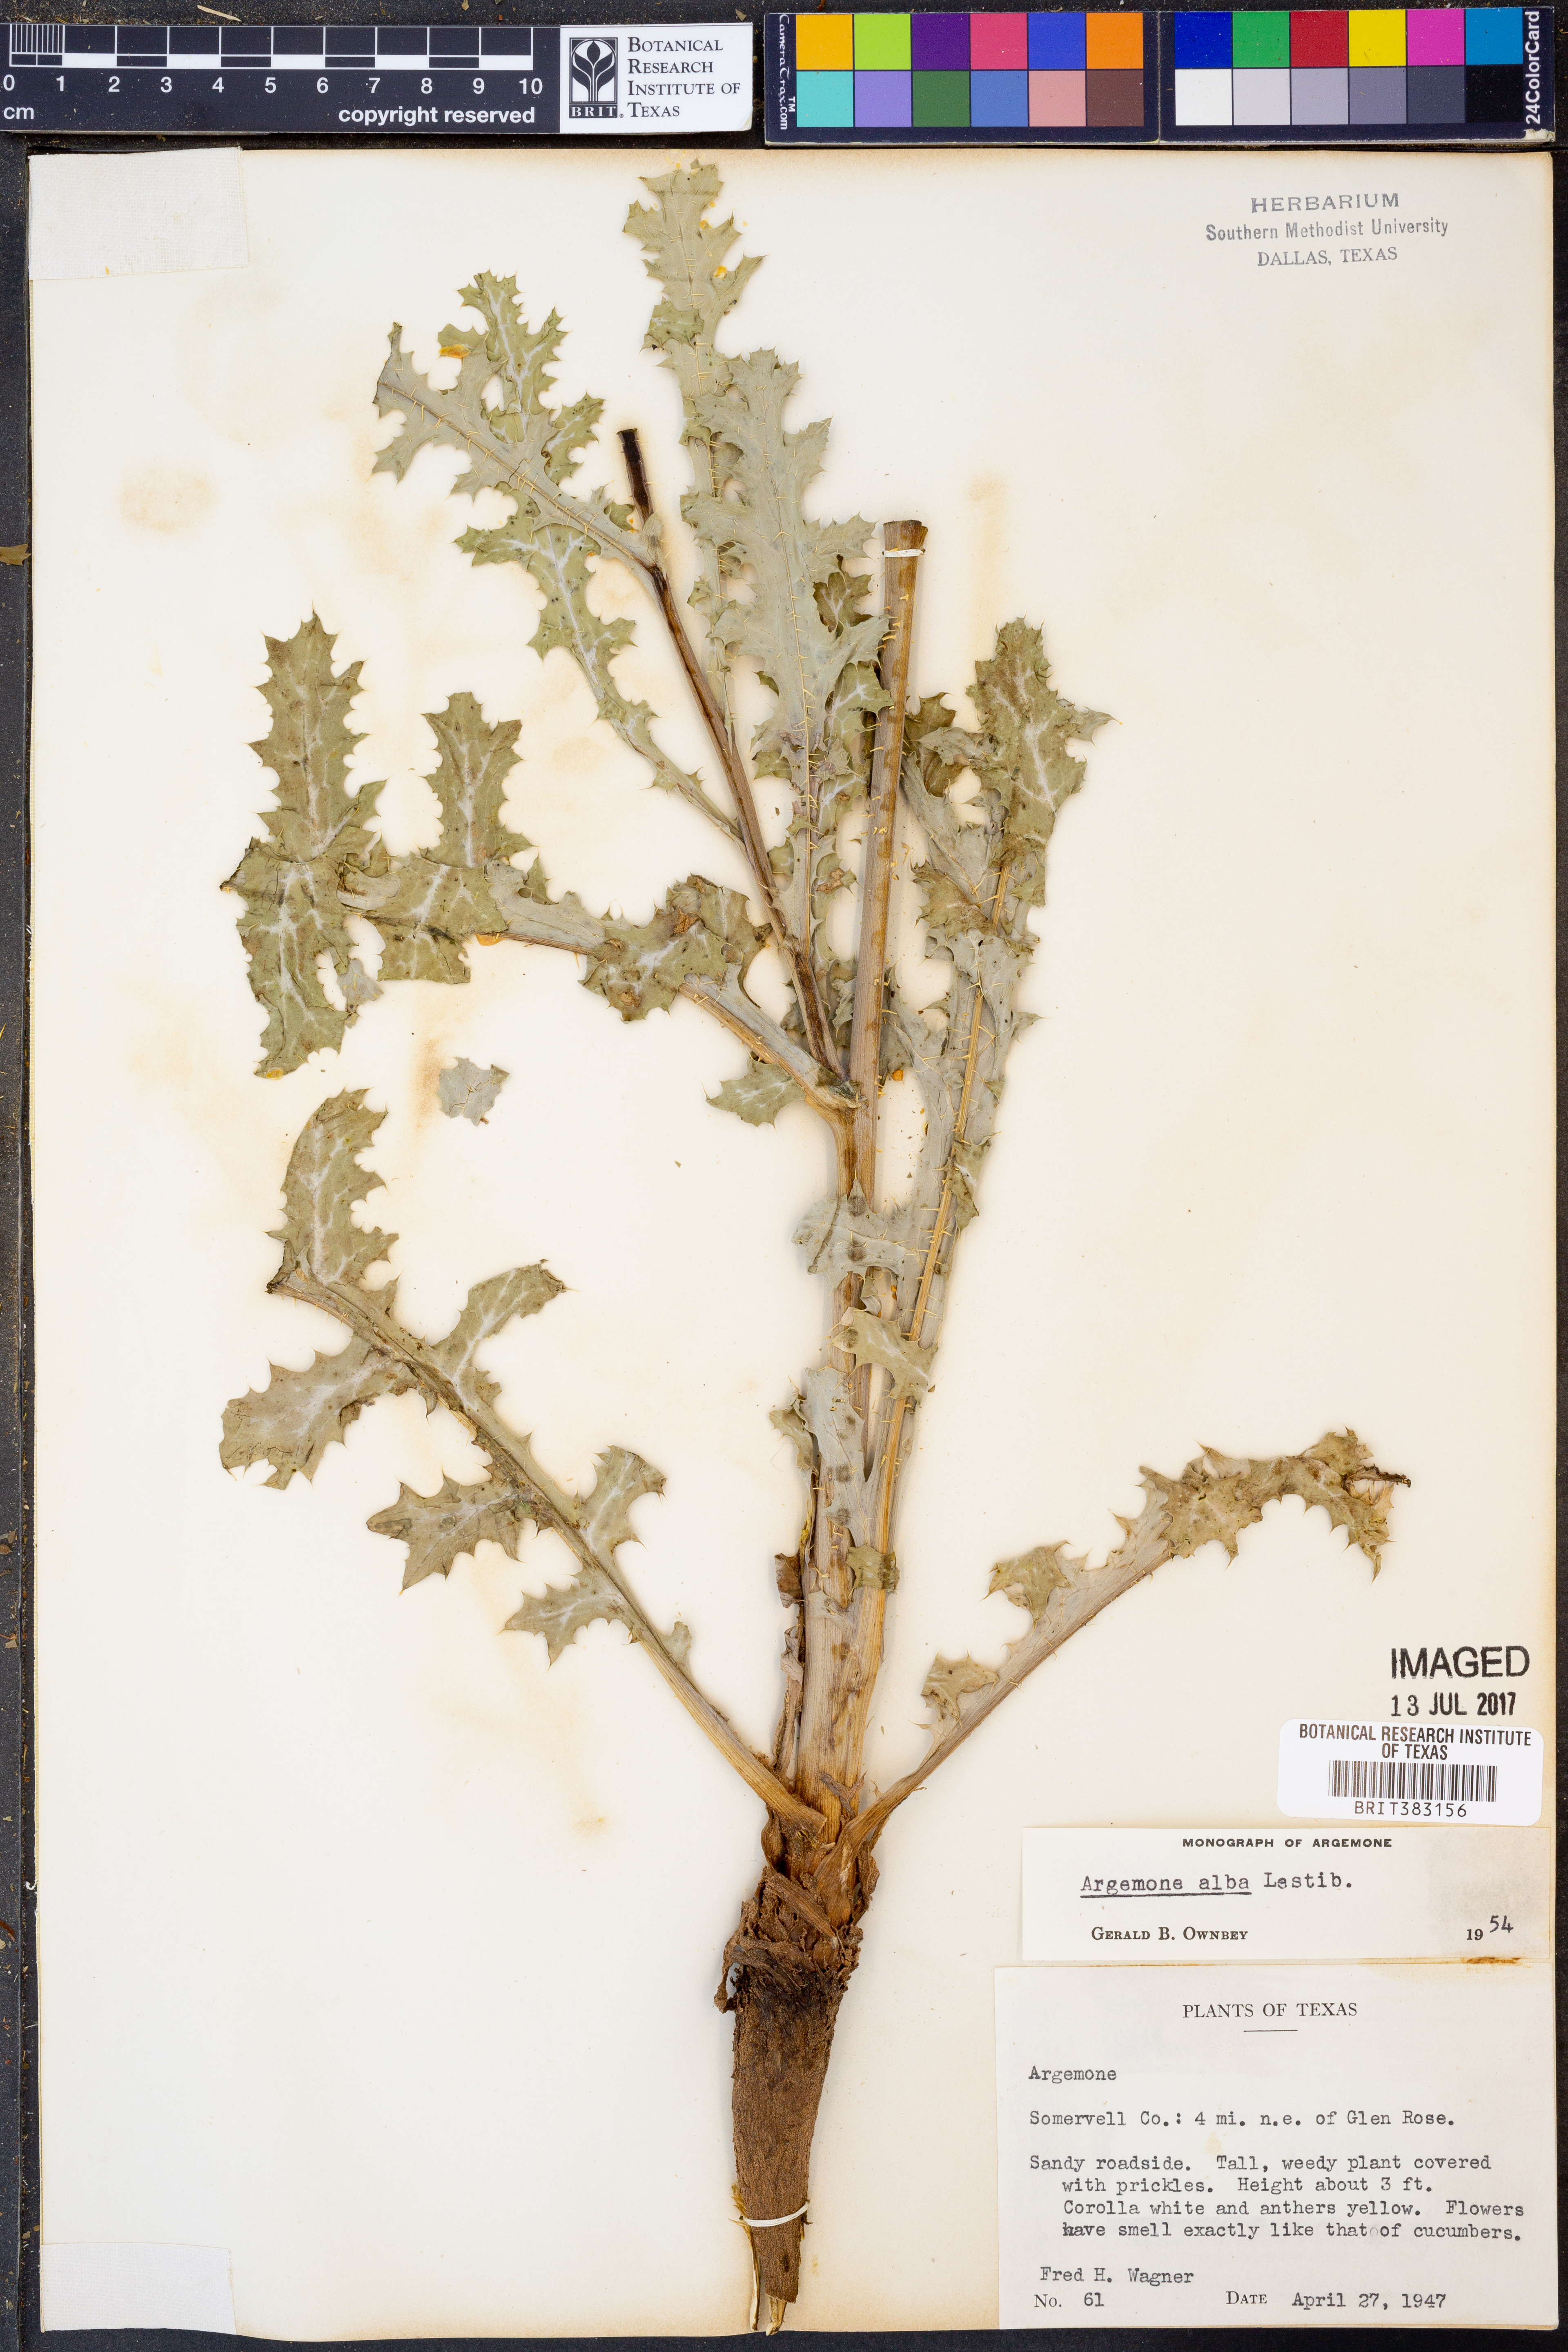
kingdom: Plantae
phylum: Tracheophyta
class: Magnoliopsida
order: Ranunculales
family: Papaveraceae
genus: Argemone
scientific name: Argemone albiflora
